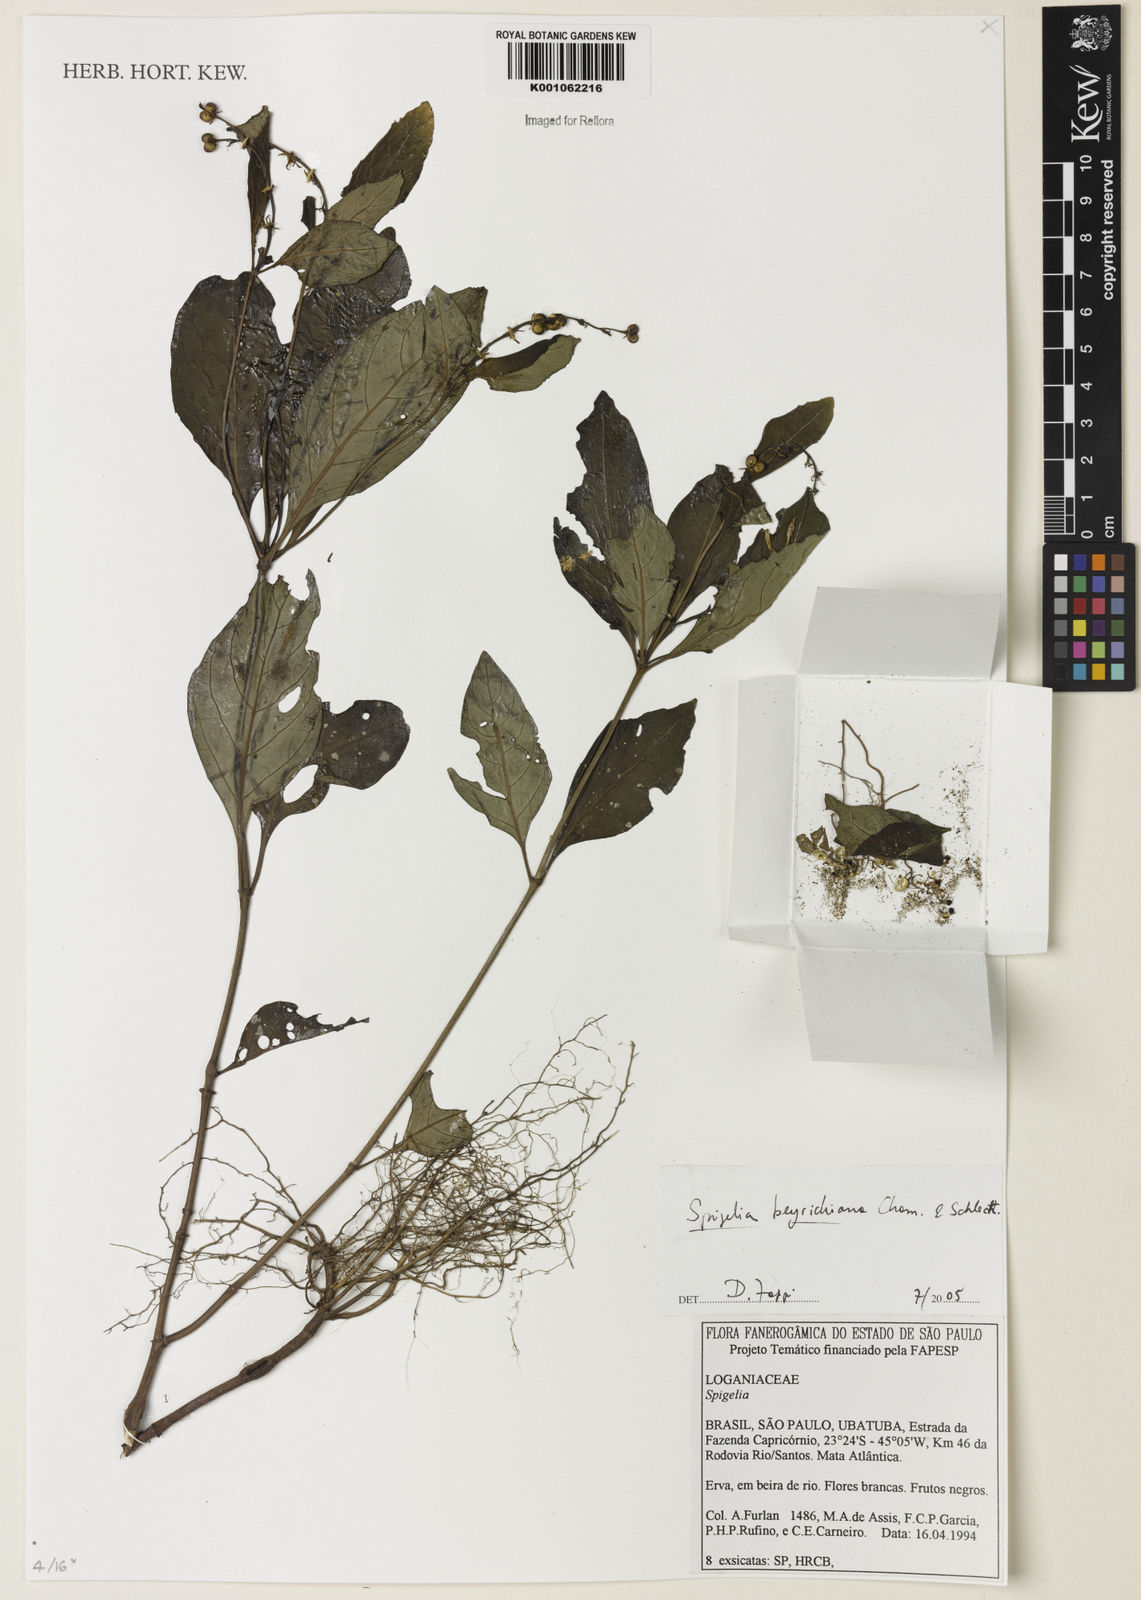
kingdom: Plantae
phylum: Tracheophyta
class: Magnoliopsida
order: Gentianales
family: Loganiaceae
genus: Spigelia
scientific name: Spigelia beyrichiana
